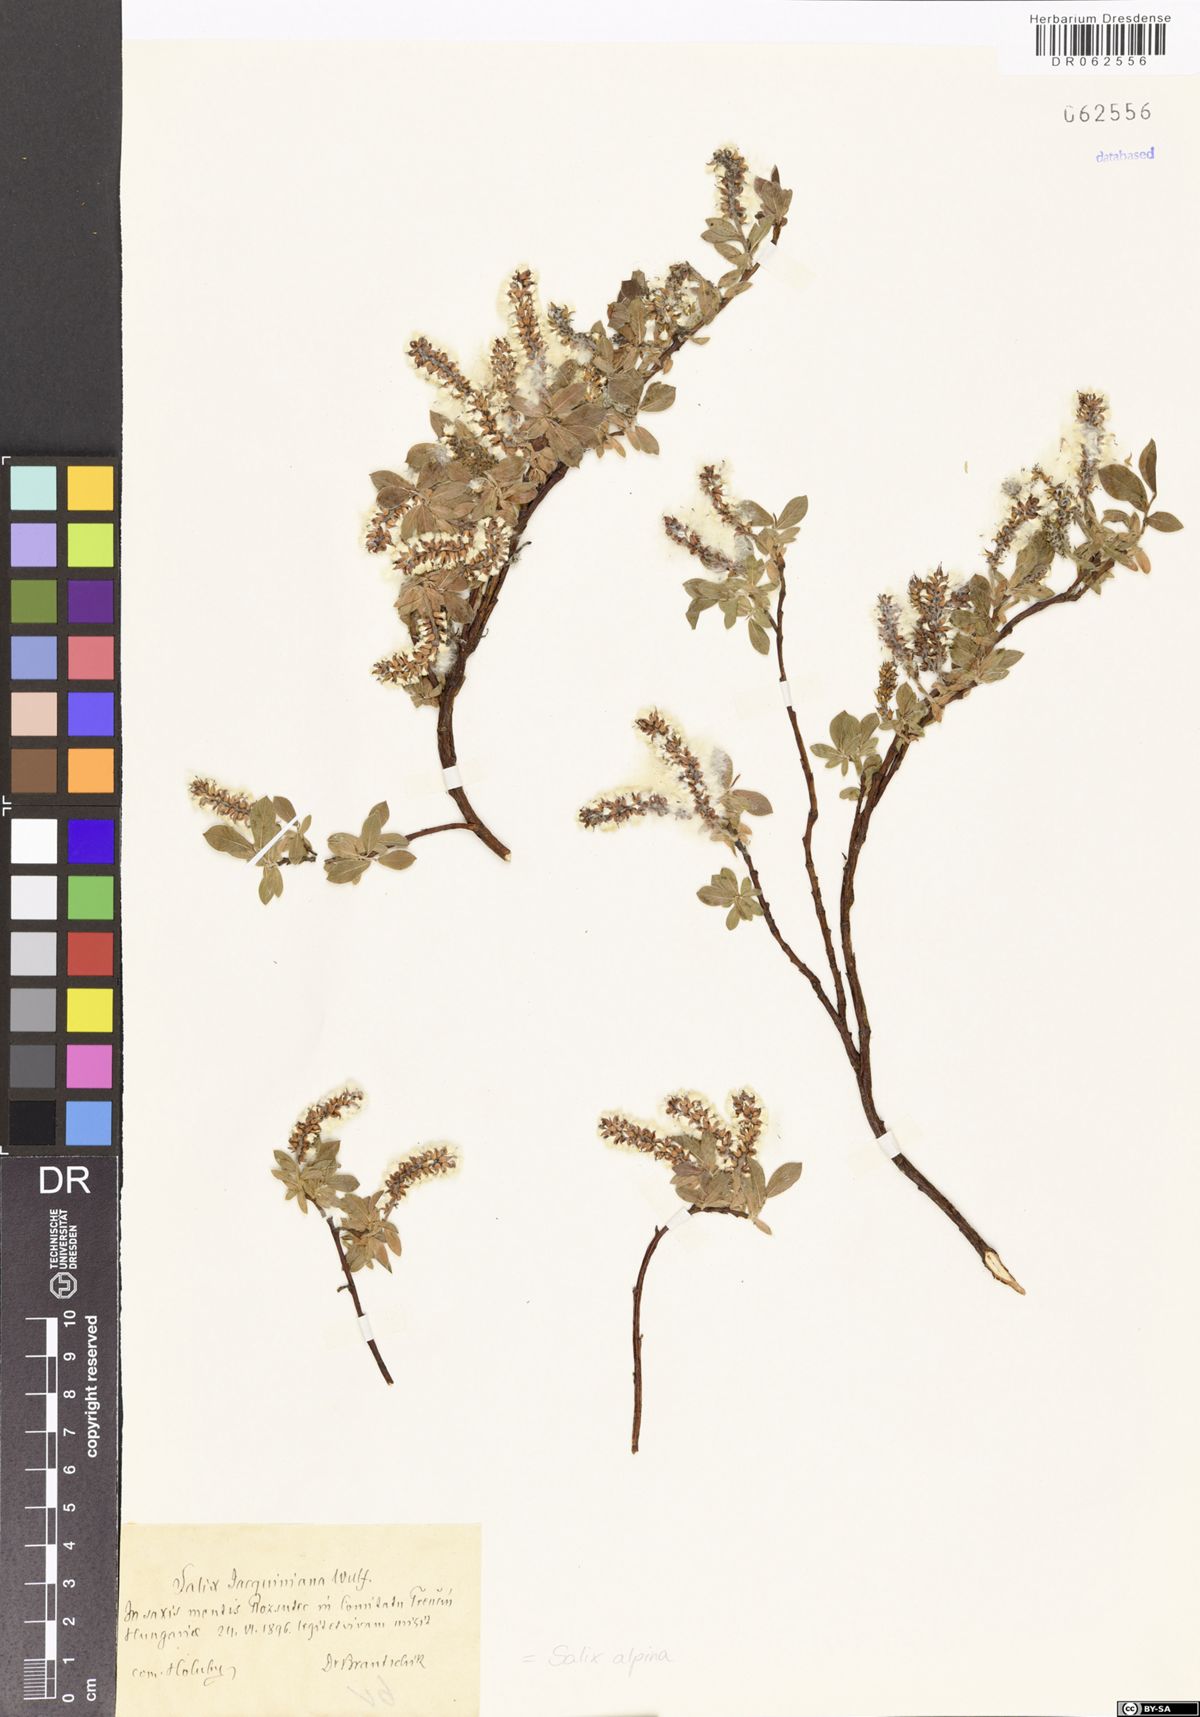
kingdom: Plantae
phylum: Tracheophyta
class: Magnoliopsida
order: Malpighiales
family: Salicaceae
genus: Salix
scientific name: Salix alpina
